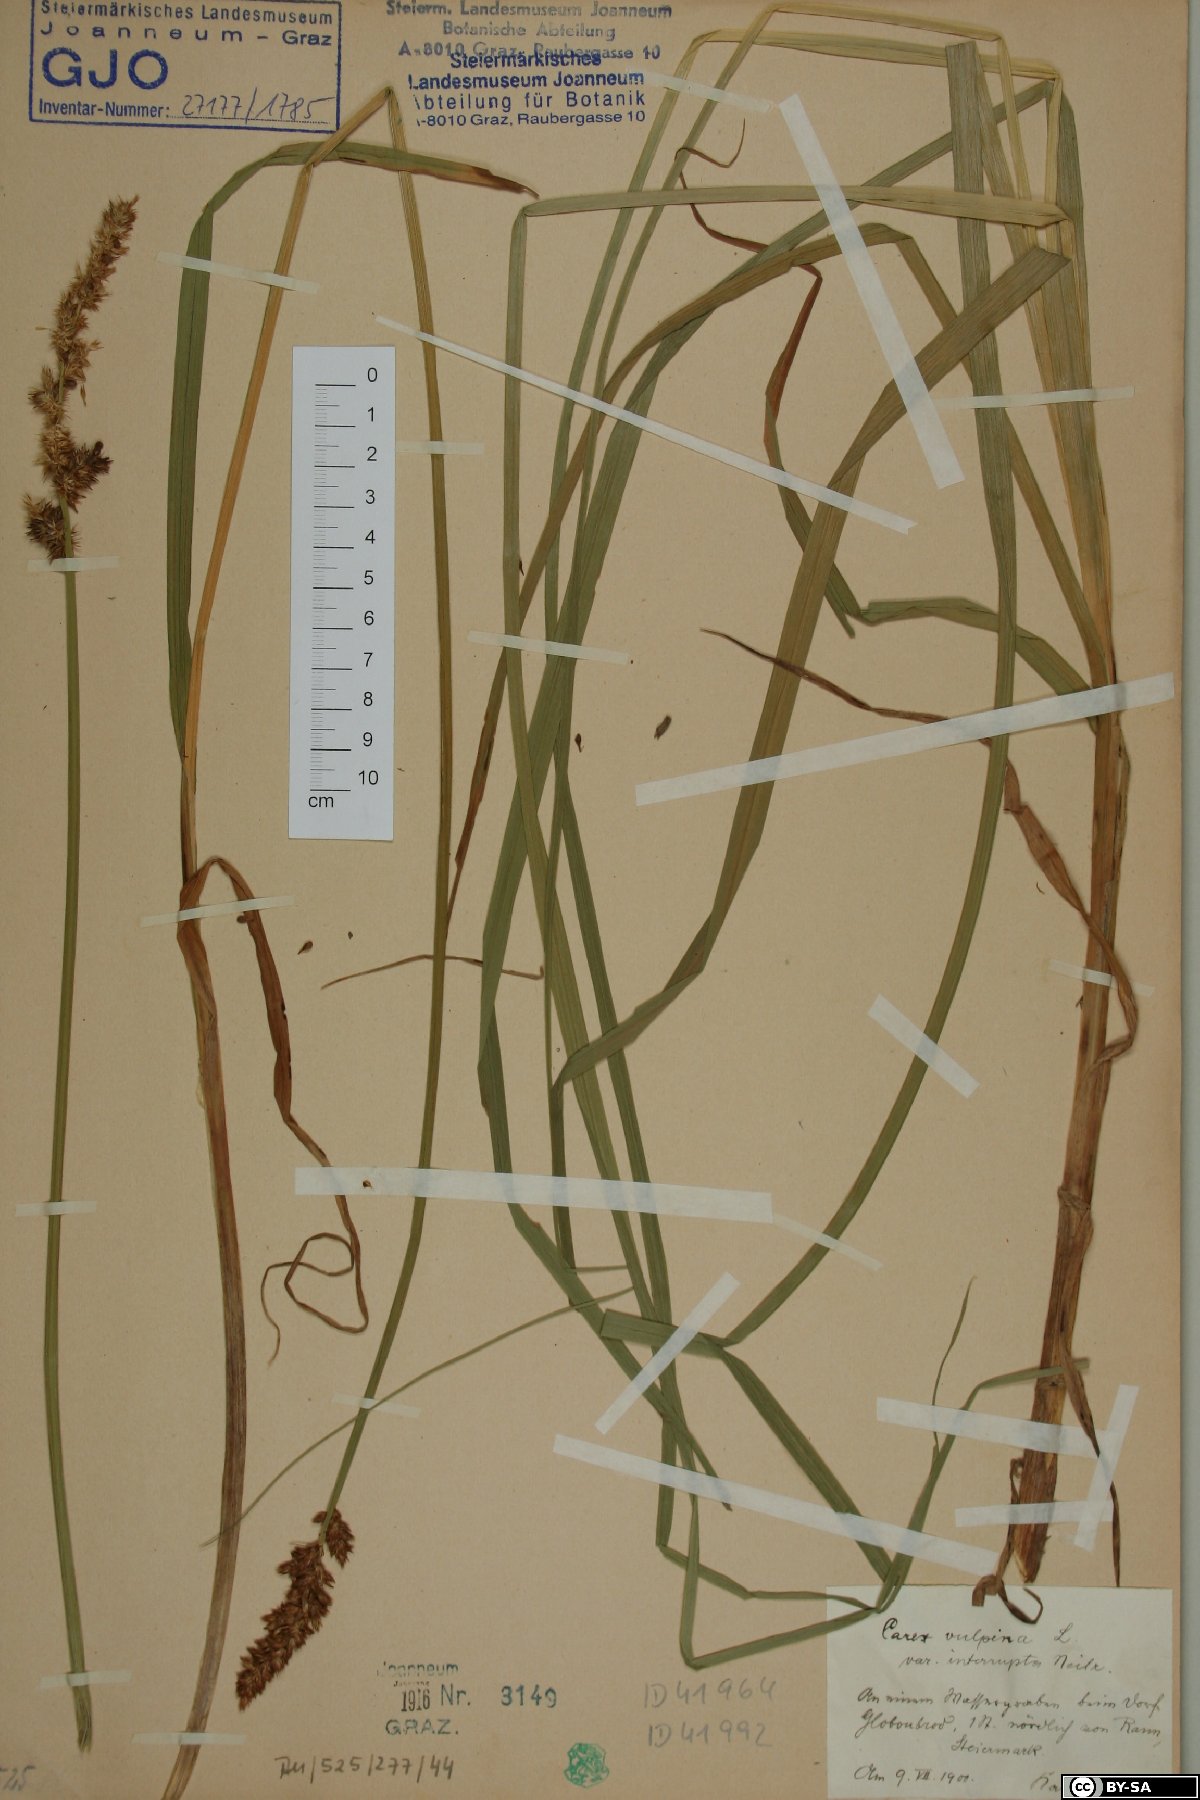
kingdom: Plantae
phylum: Tracheophyta
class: Liliopsida
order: Poales
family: Cyperaceae
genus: Carex
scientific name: Carex otrubae
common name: False fox-sedge
